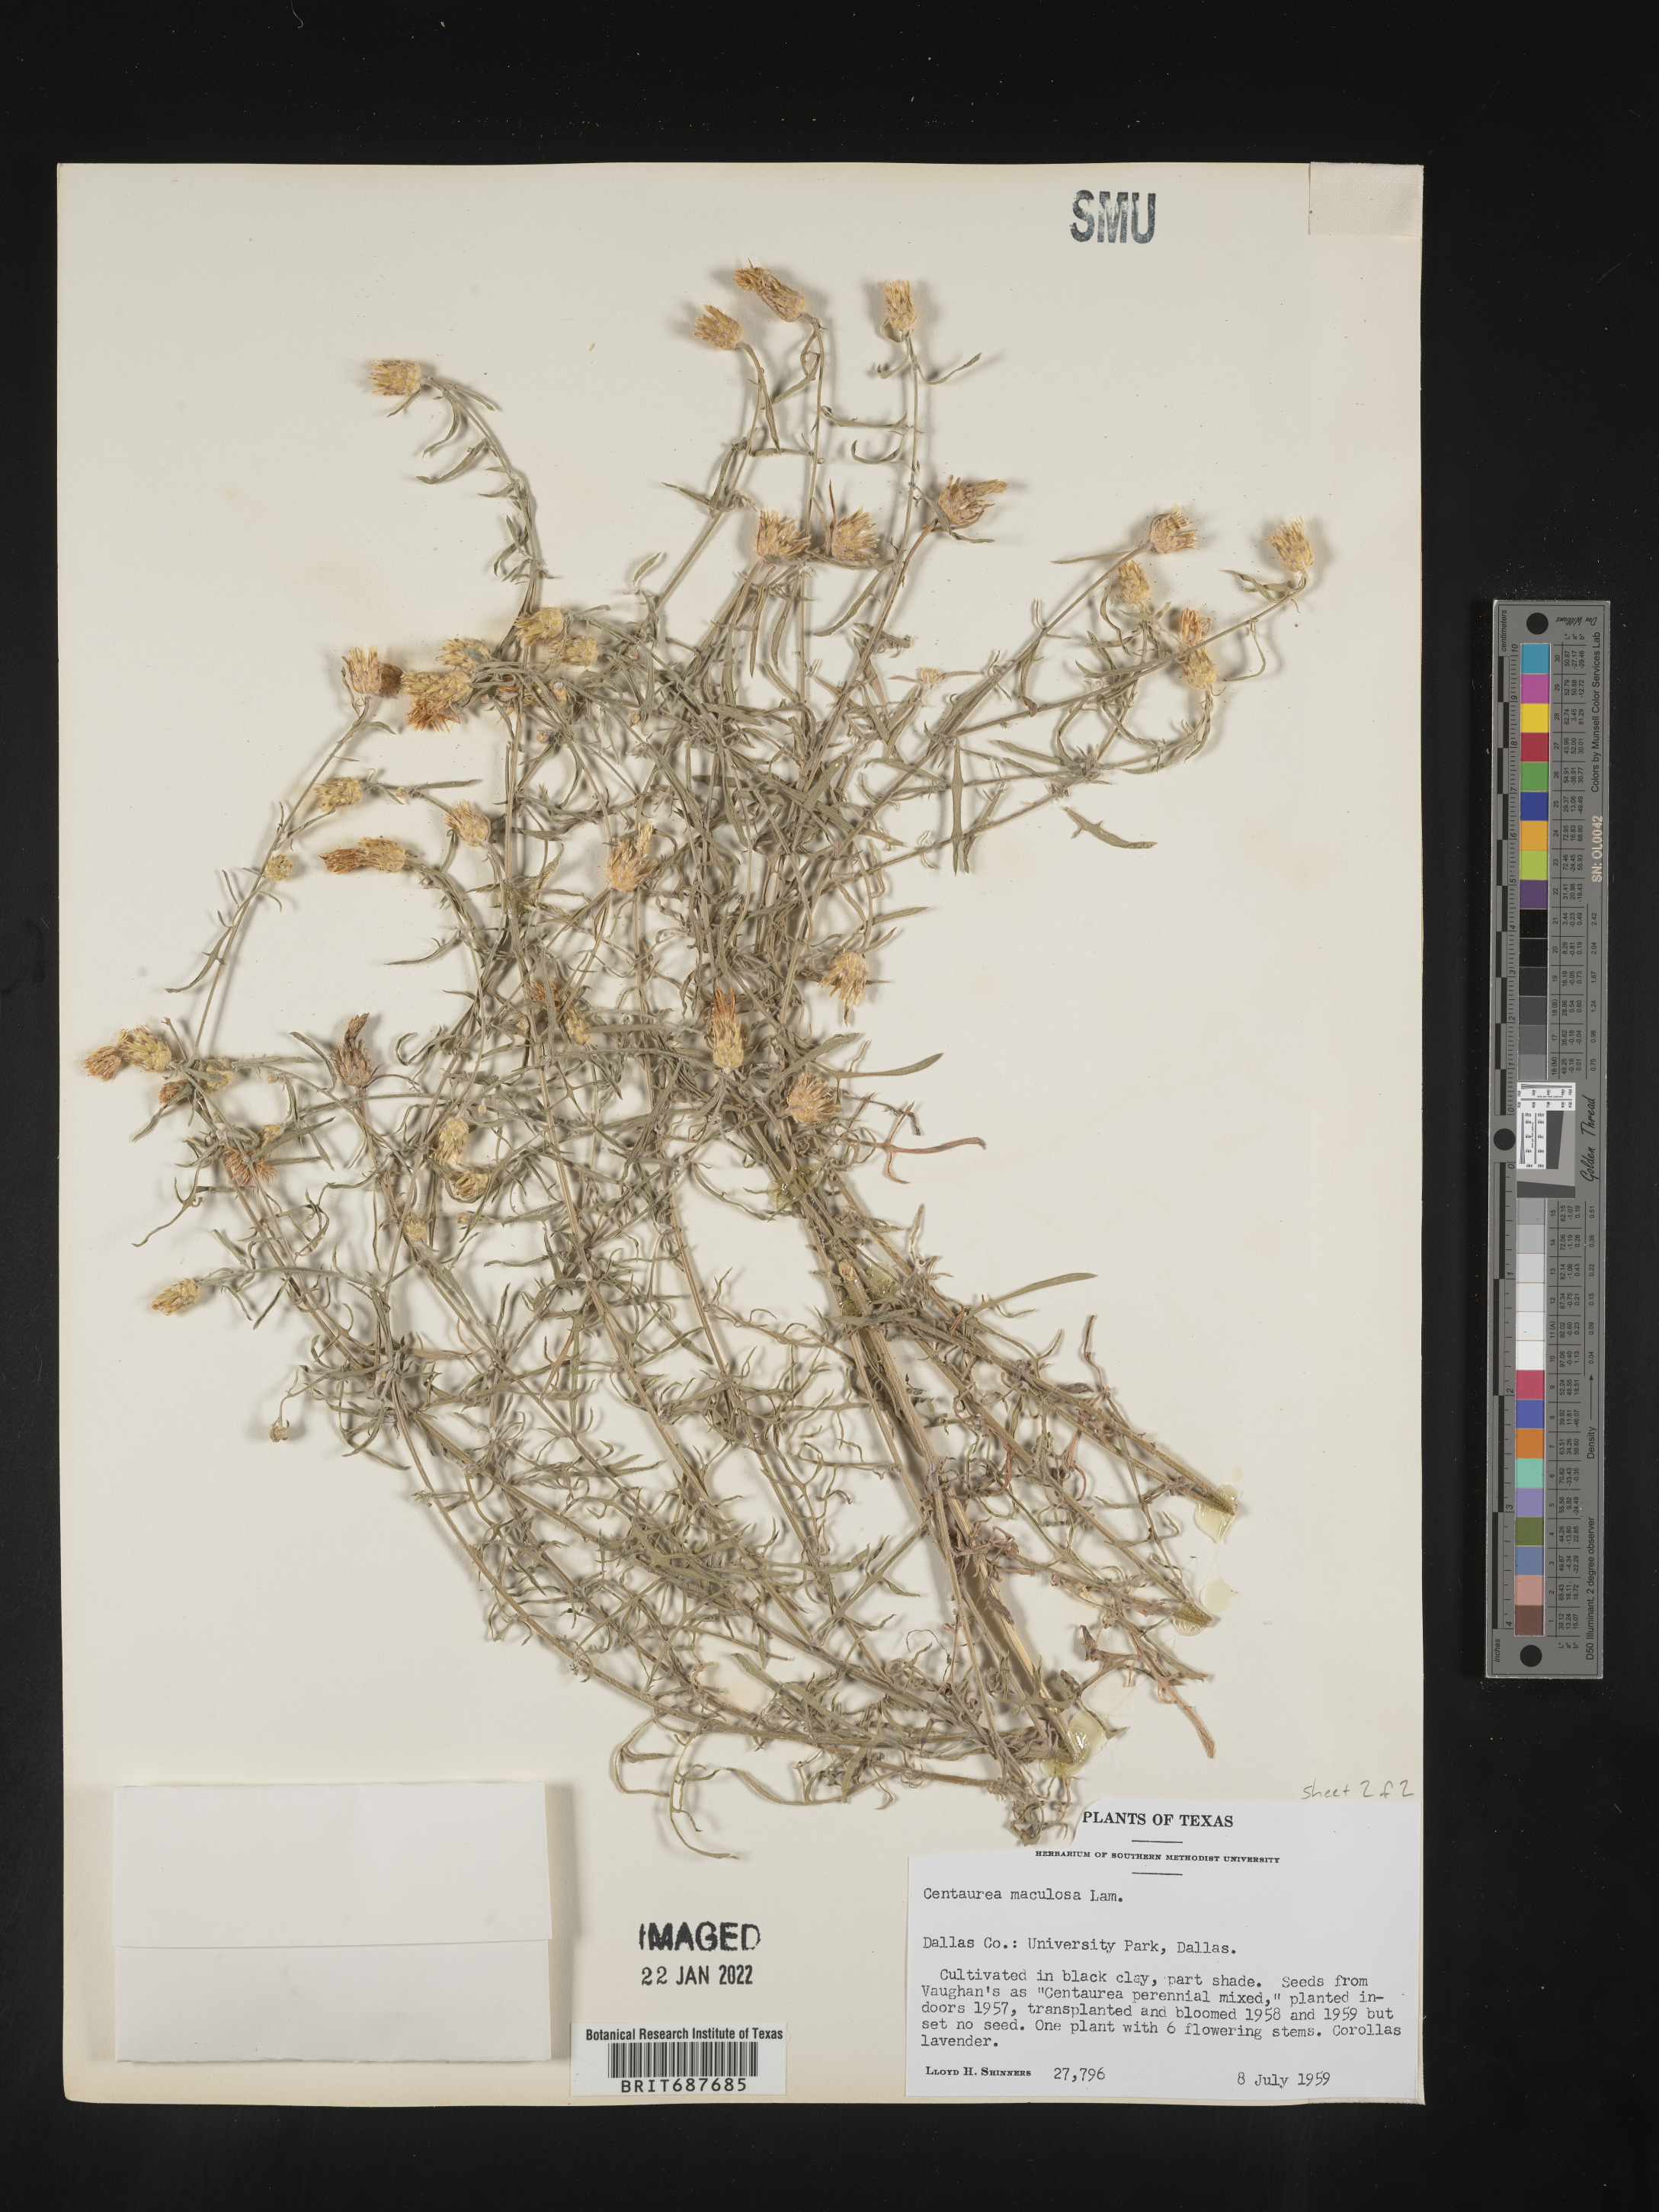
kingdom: Plantae
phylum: Tracheophyta
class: Magnoliopsida
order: Asterales
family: Asteraceae
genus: Centaurea
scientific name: Centaurea
